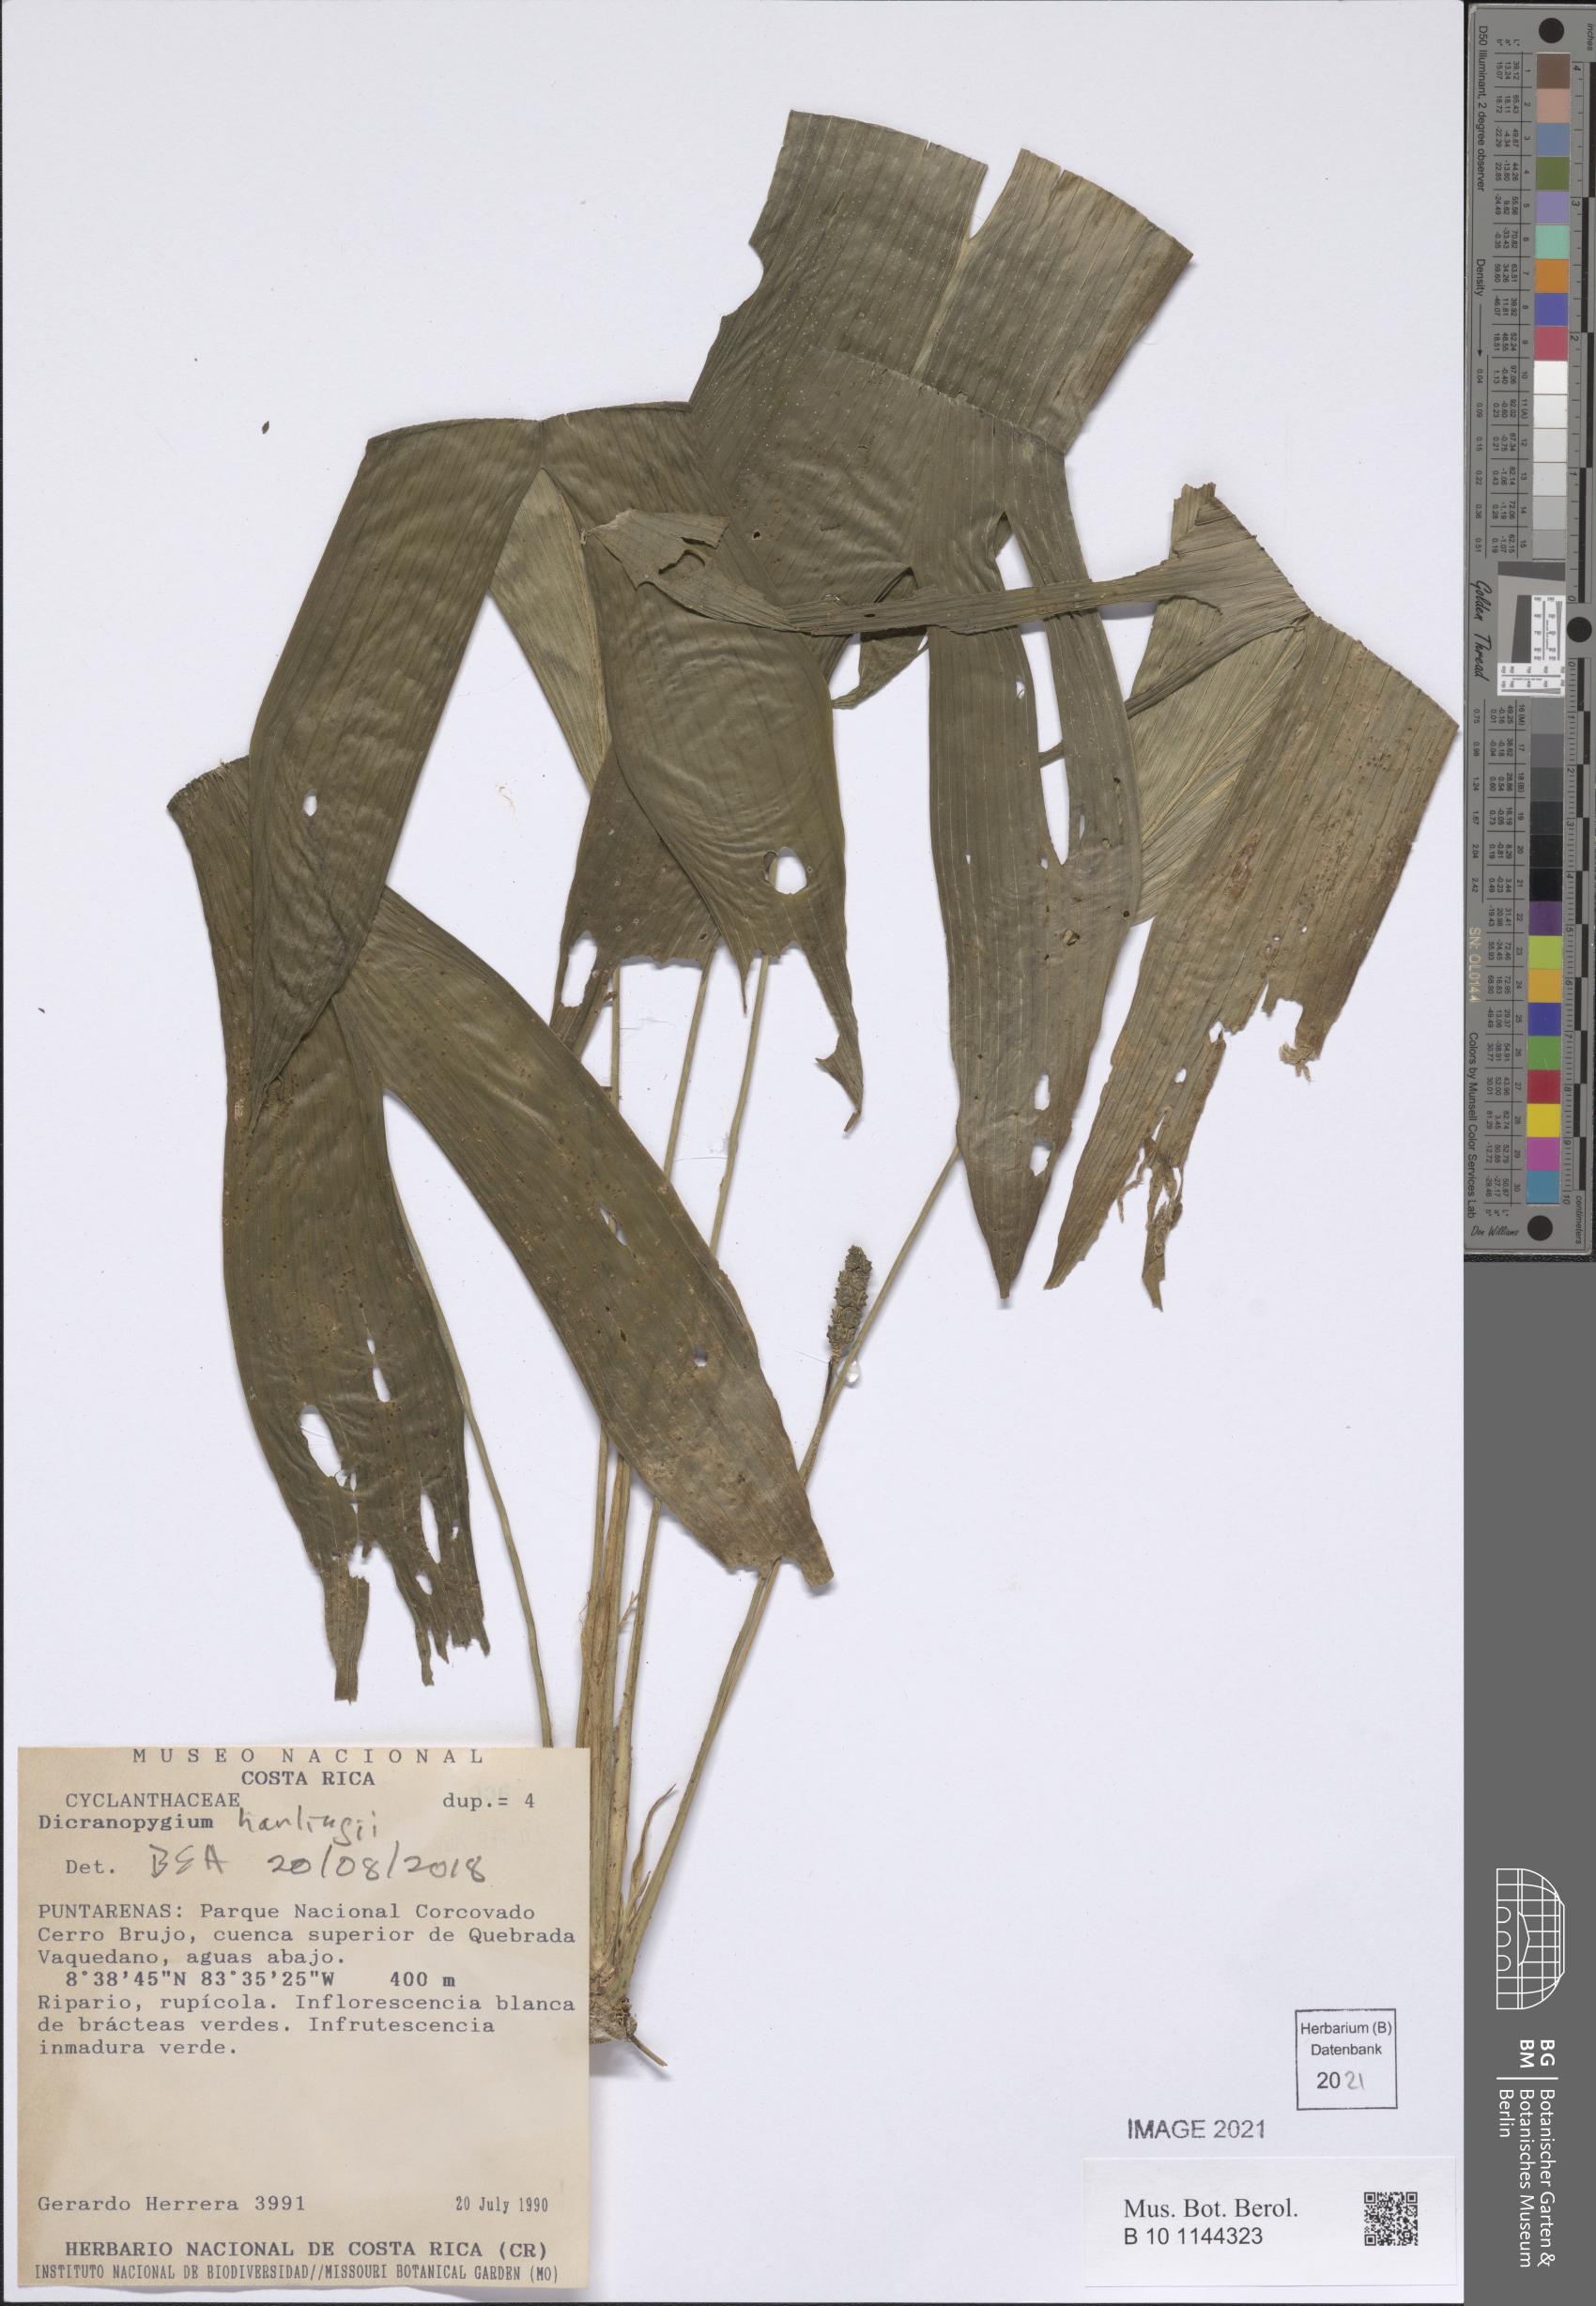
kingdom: Plantae
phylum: Tracheophyta
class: Liliopsida
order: Pandanales
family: Cyclanthaceae
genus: Dicranopygium
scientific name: Dicranopygium
